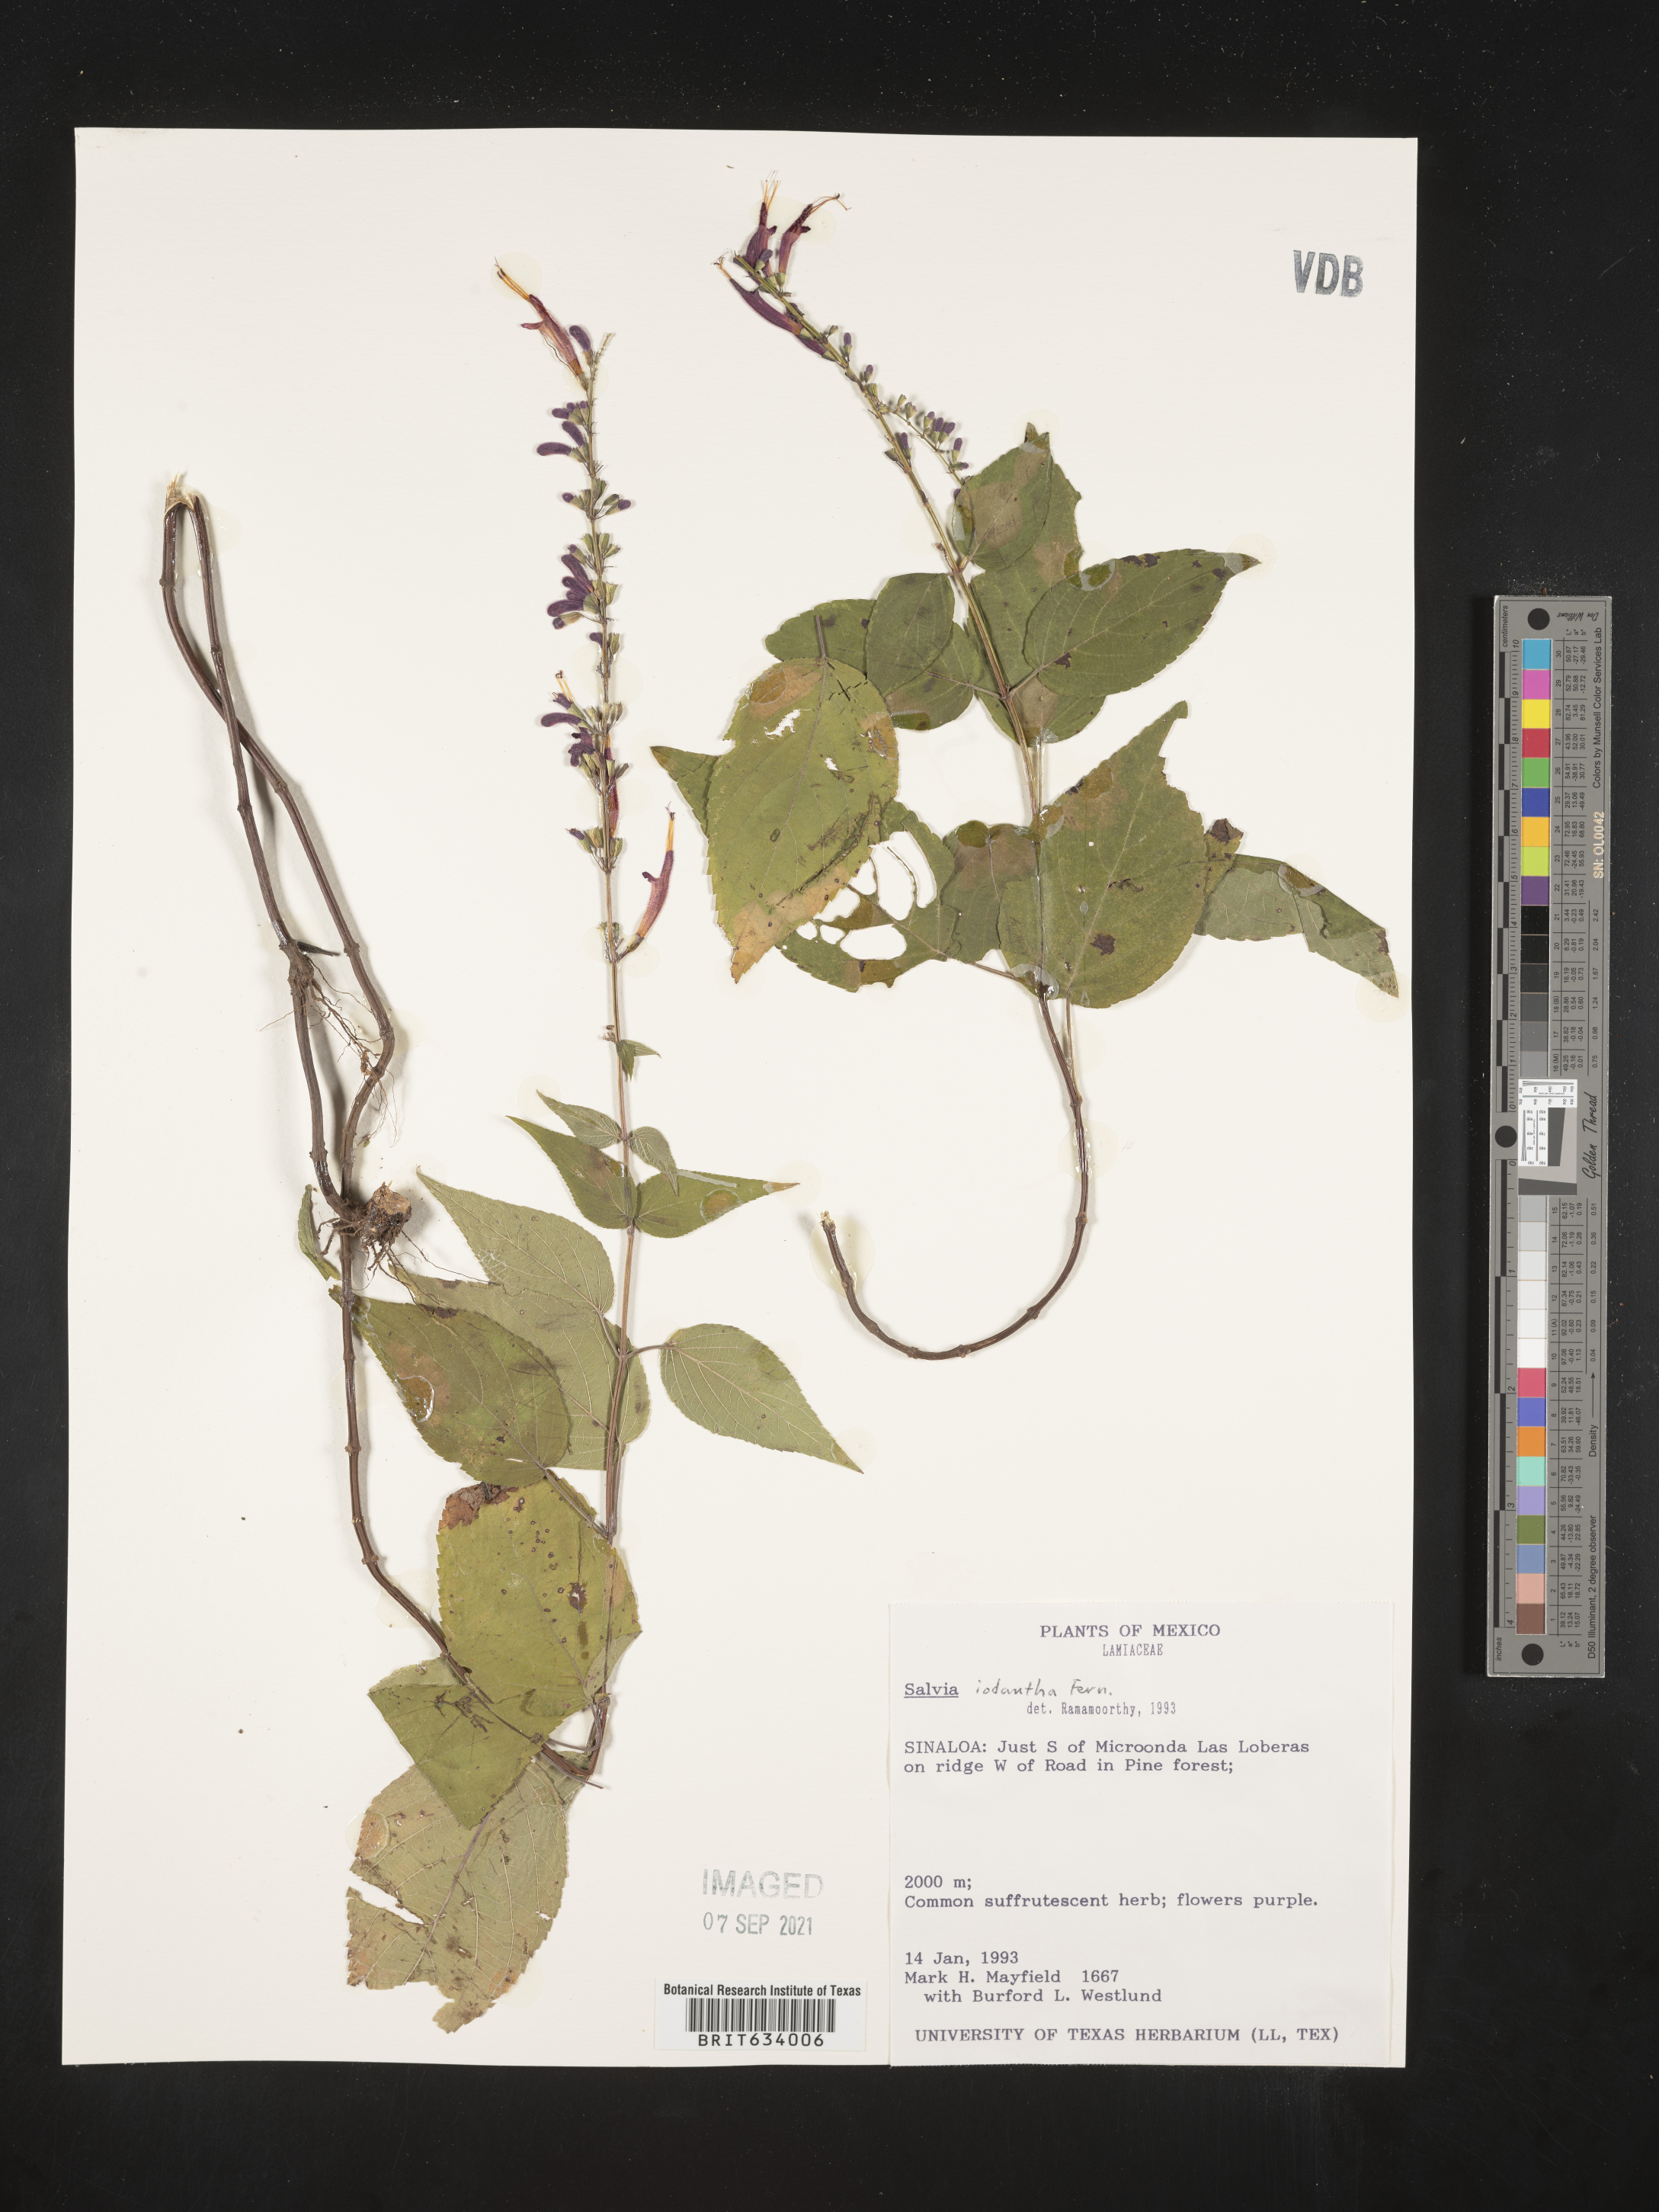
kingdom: Plantae
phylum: Tracheophyta
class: Magnoliopsida
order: Lamiales
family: Lamiaceae
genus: Salvia
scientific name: Salvia
